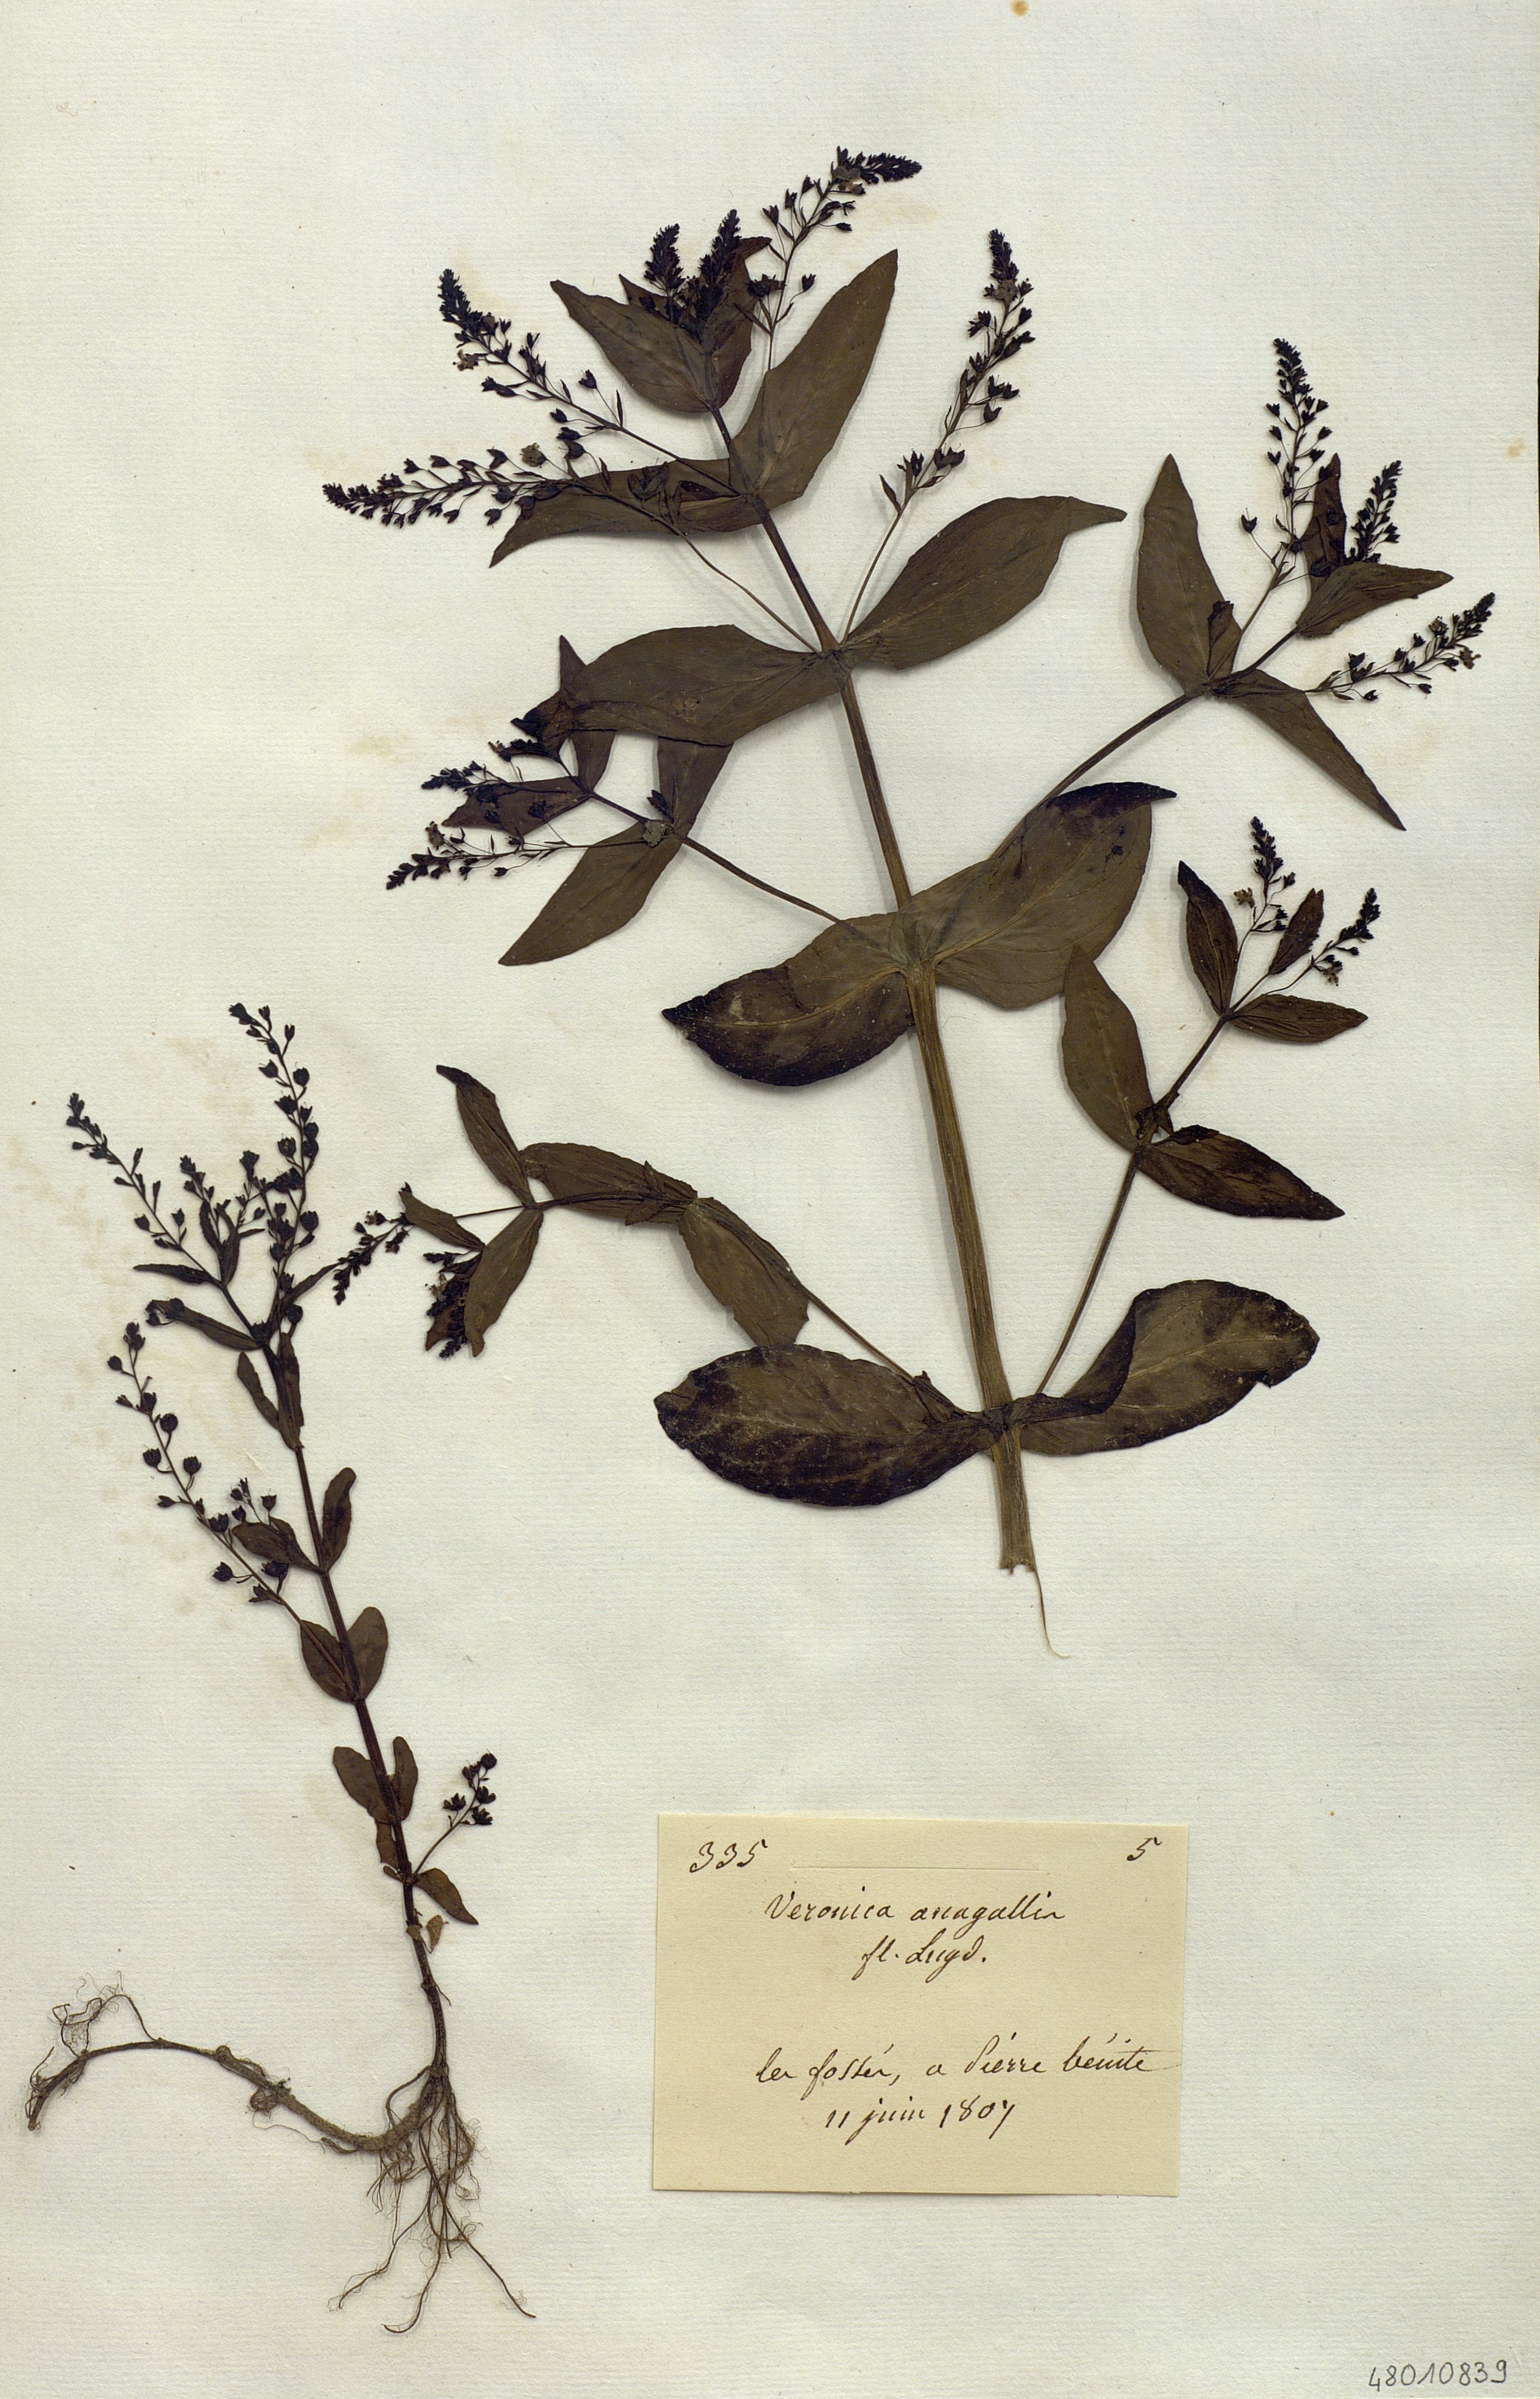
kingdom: Plantae
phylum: Tracheophyta
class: Magnoliopsida
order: Lamiales
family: Plantaginaceae
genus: Veronica
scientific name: Veronica anagallis
